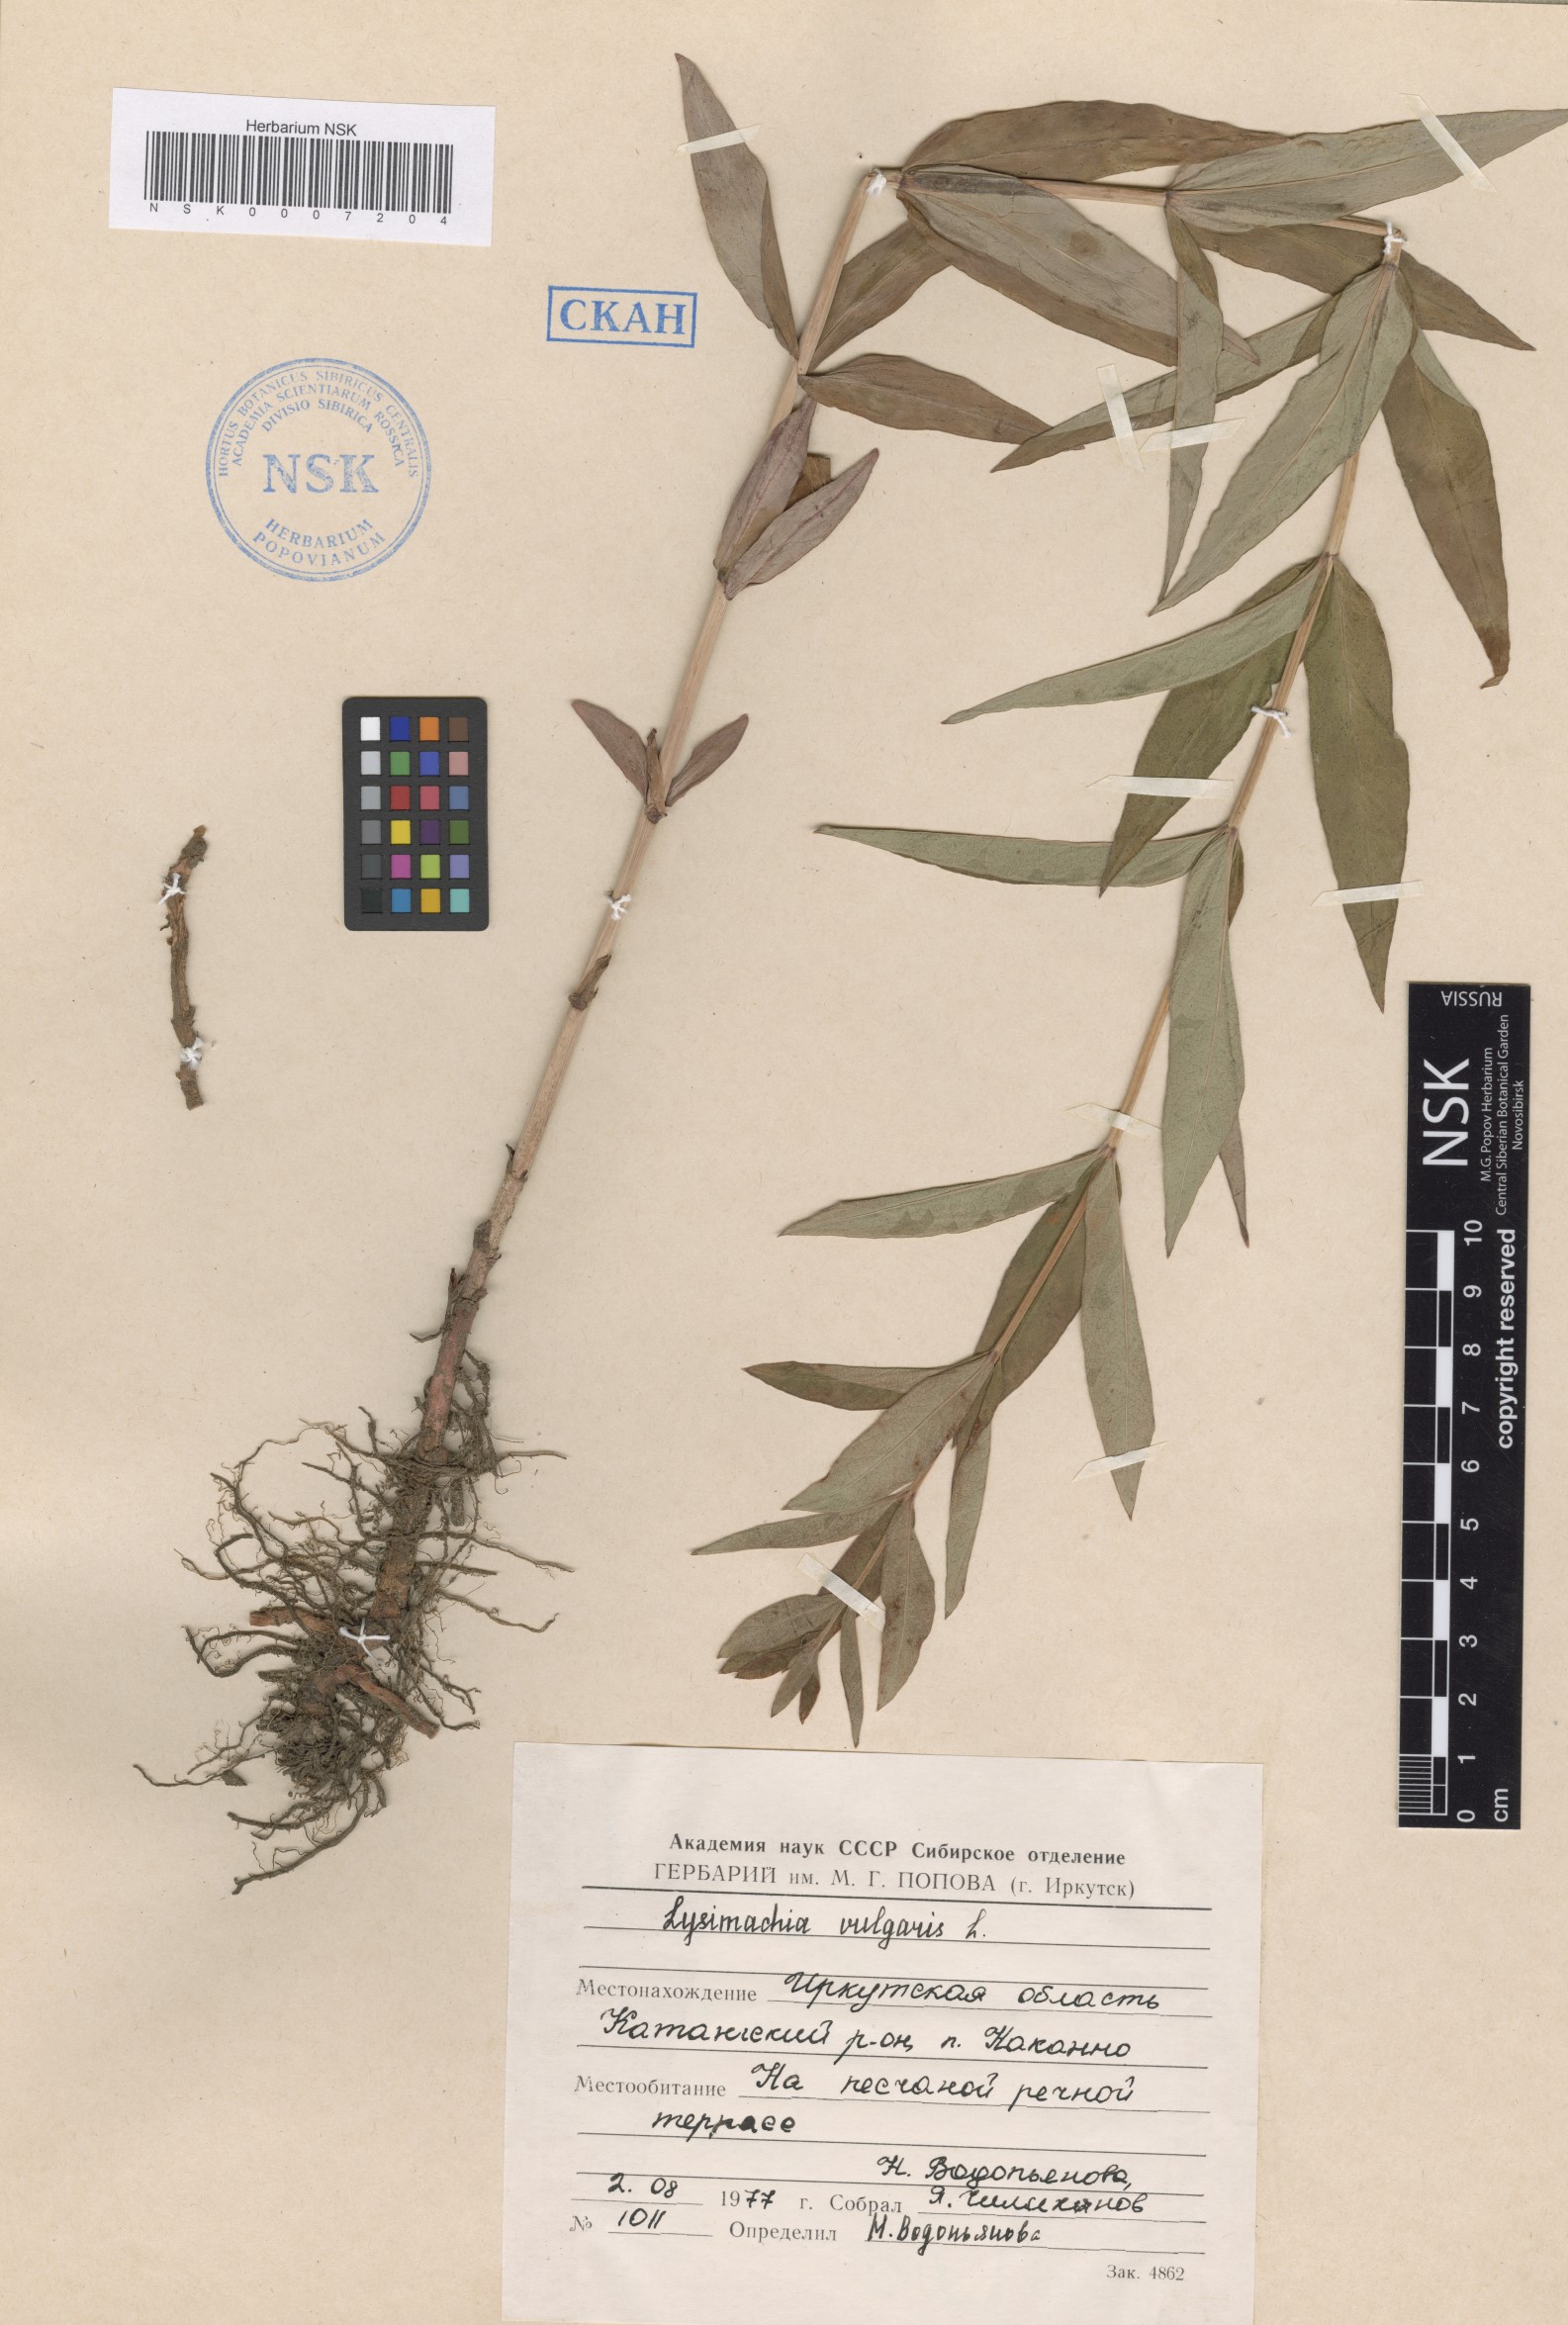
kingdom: Plantae
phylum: Tracheophyta
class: Magnoliopsida
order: Ericales
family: Primulaceae
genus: Lysimachia
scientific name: Lysimachia vulgaris
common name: Yellow loosestrife
